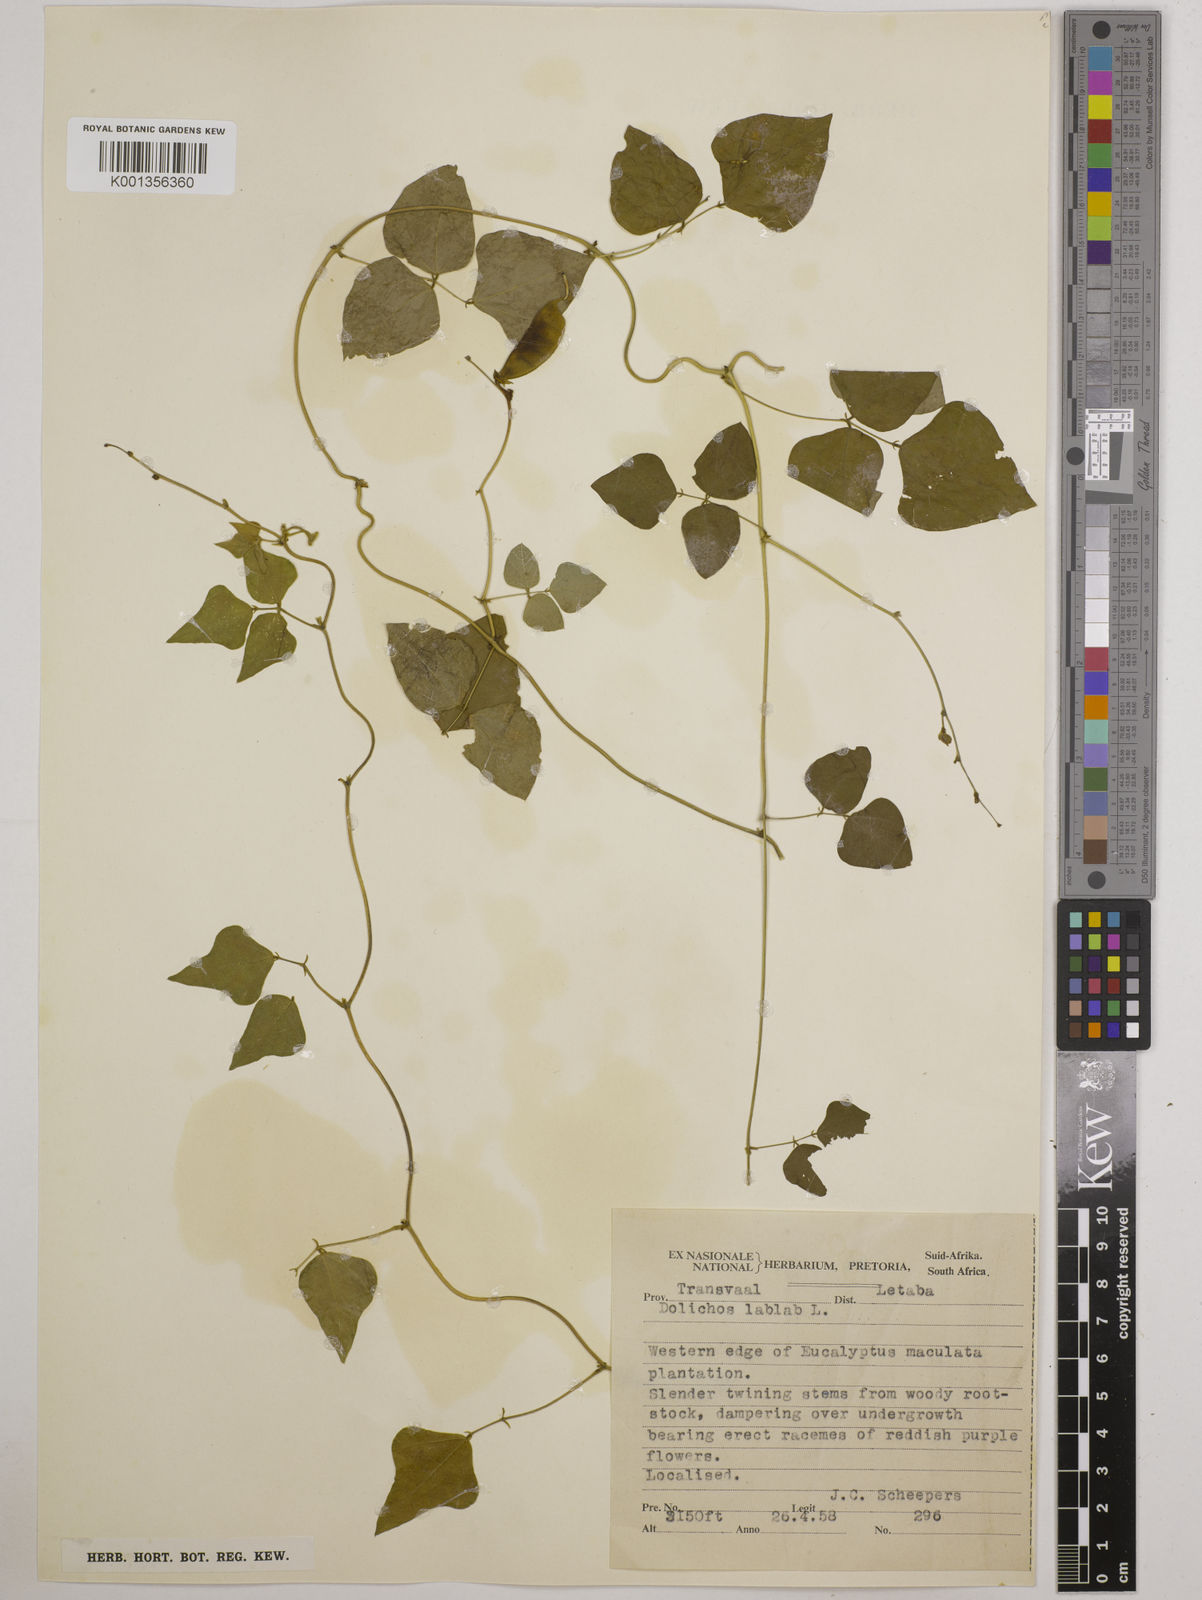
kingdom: Plantae
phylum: Tracheophyta
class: Magnoliopsida
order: Fabales
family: Fabaceae
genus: Lablab
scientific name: Lablab purpureus
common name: Lablab-bean
